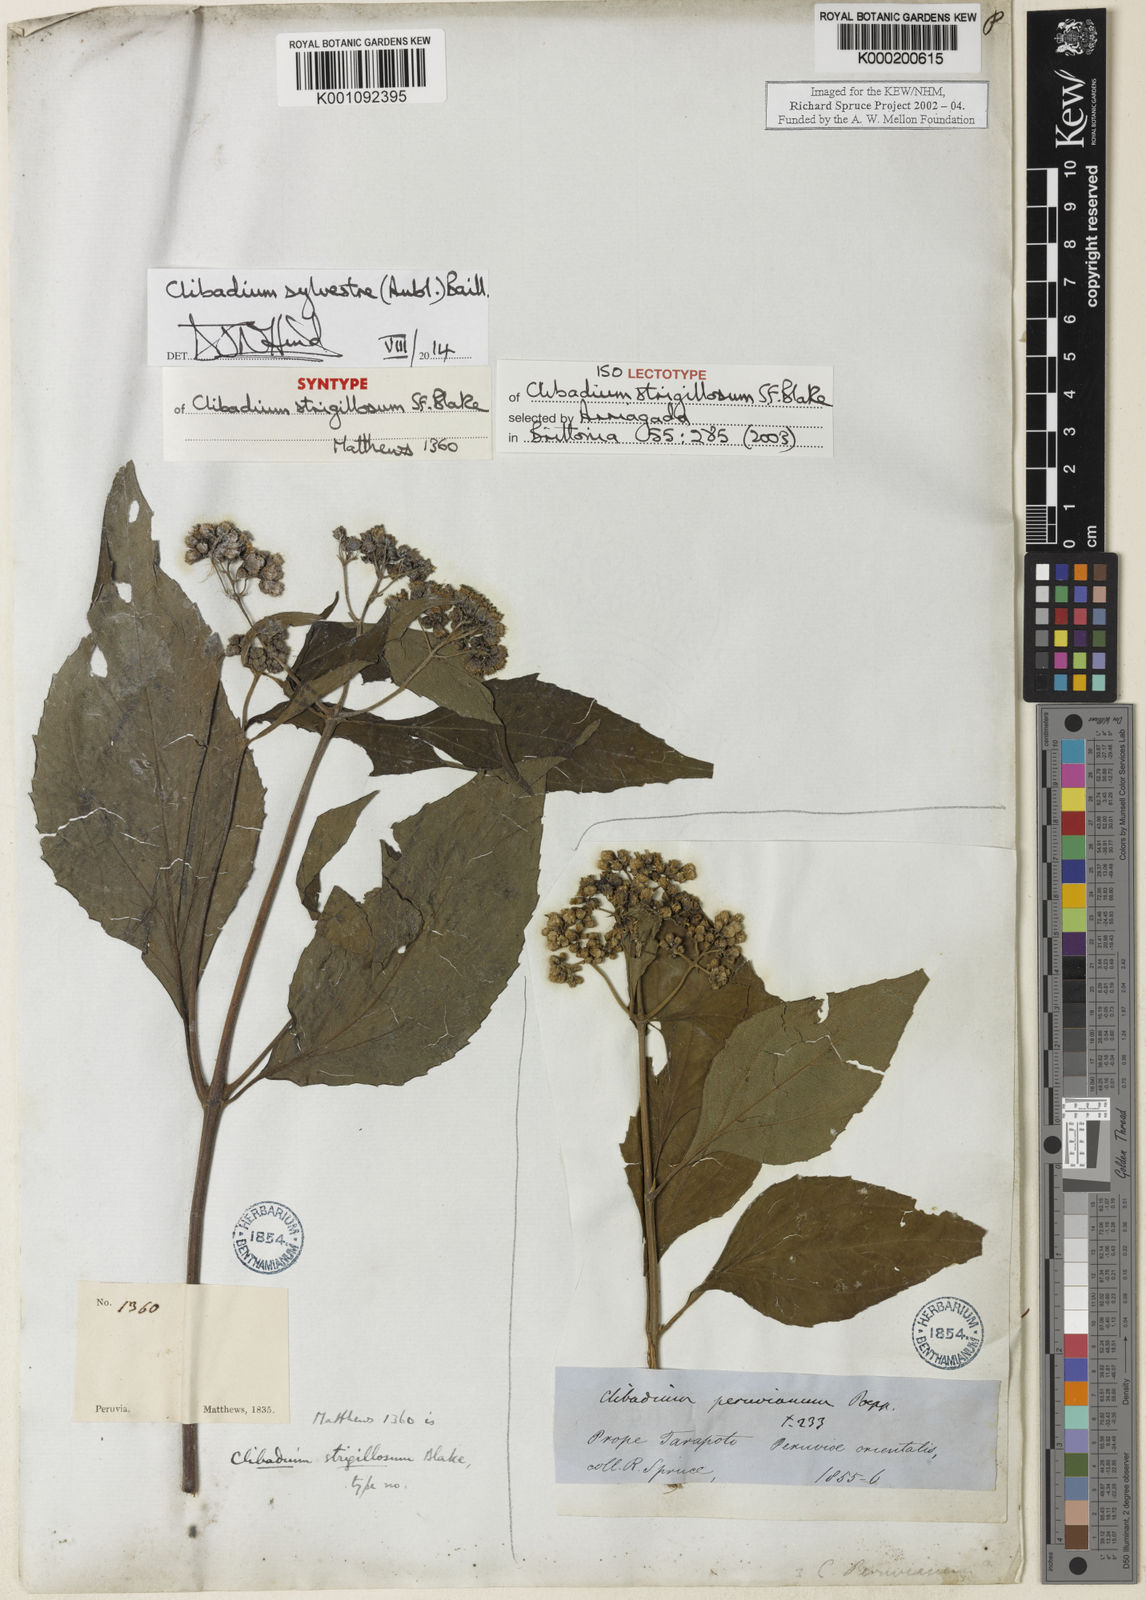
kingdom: Plantae
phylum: Tracheophyta
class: Magnoliopsida
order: Asterales
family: Asteraceae
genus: Clibadium
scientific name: Clibadium sylvestre
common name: Barbasco
